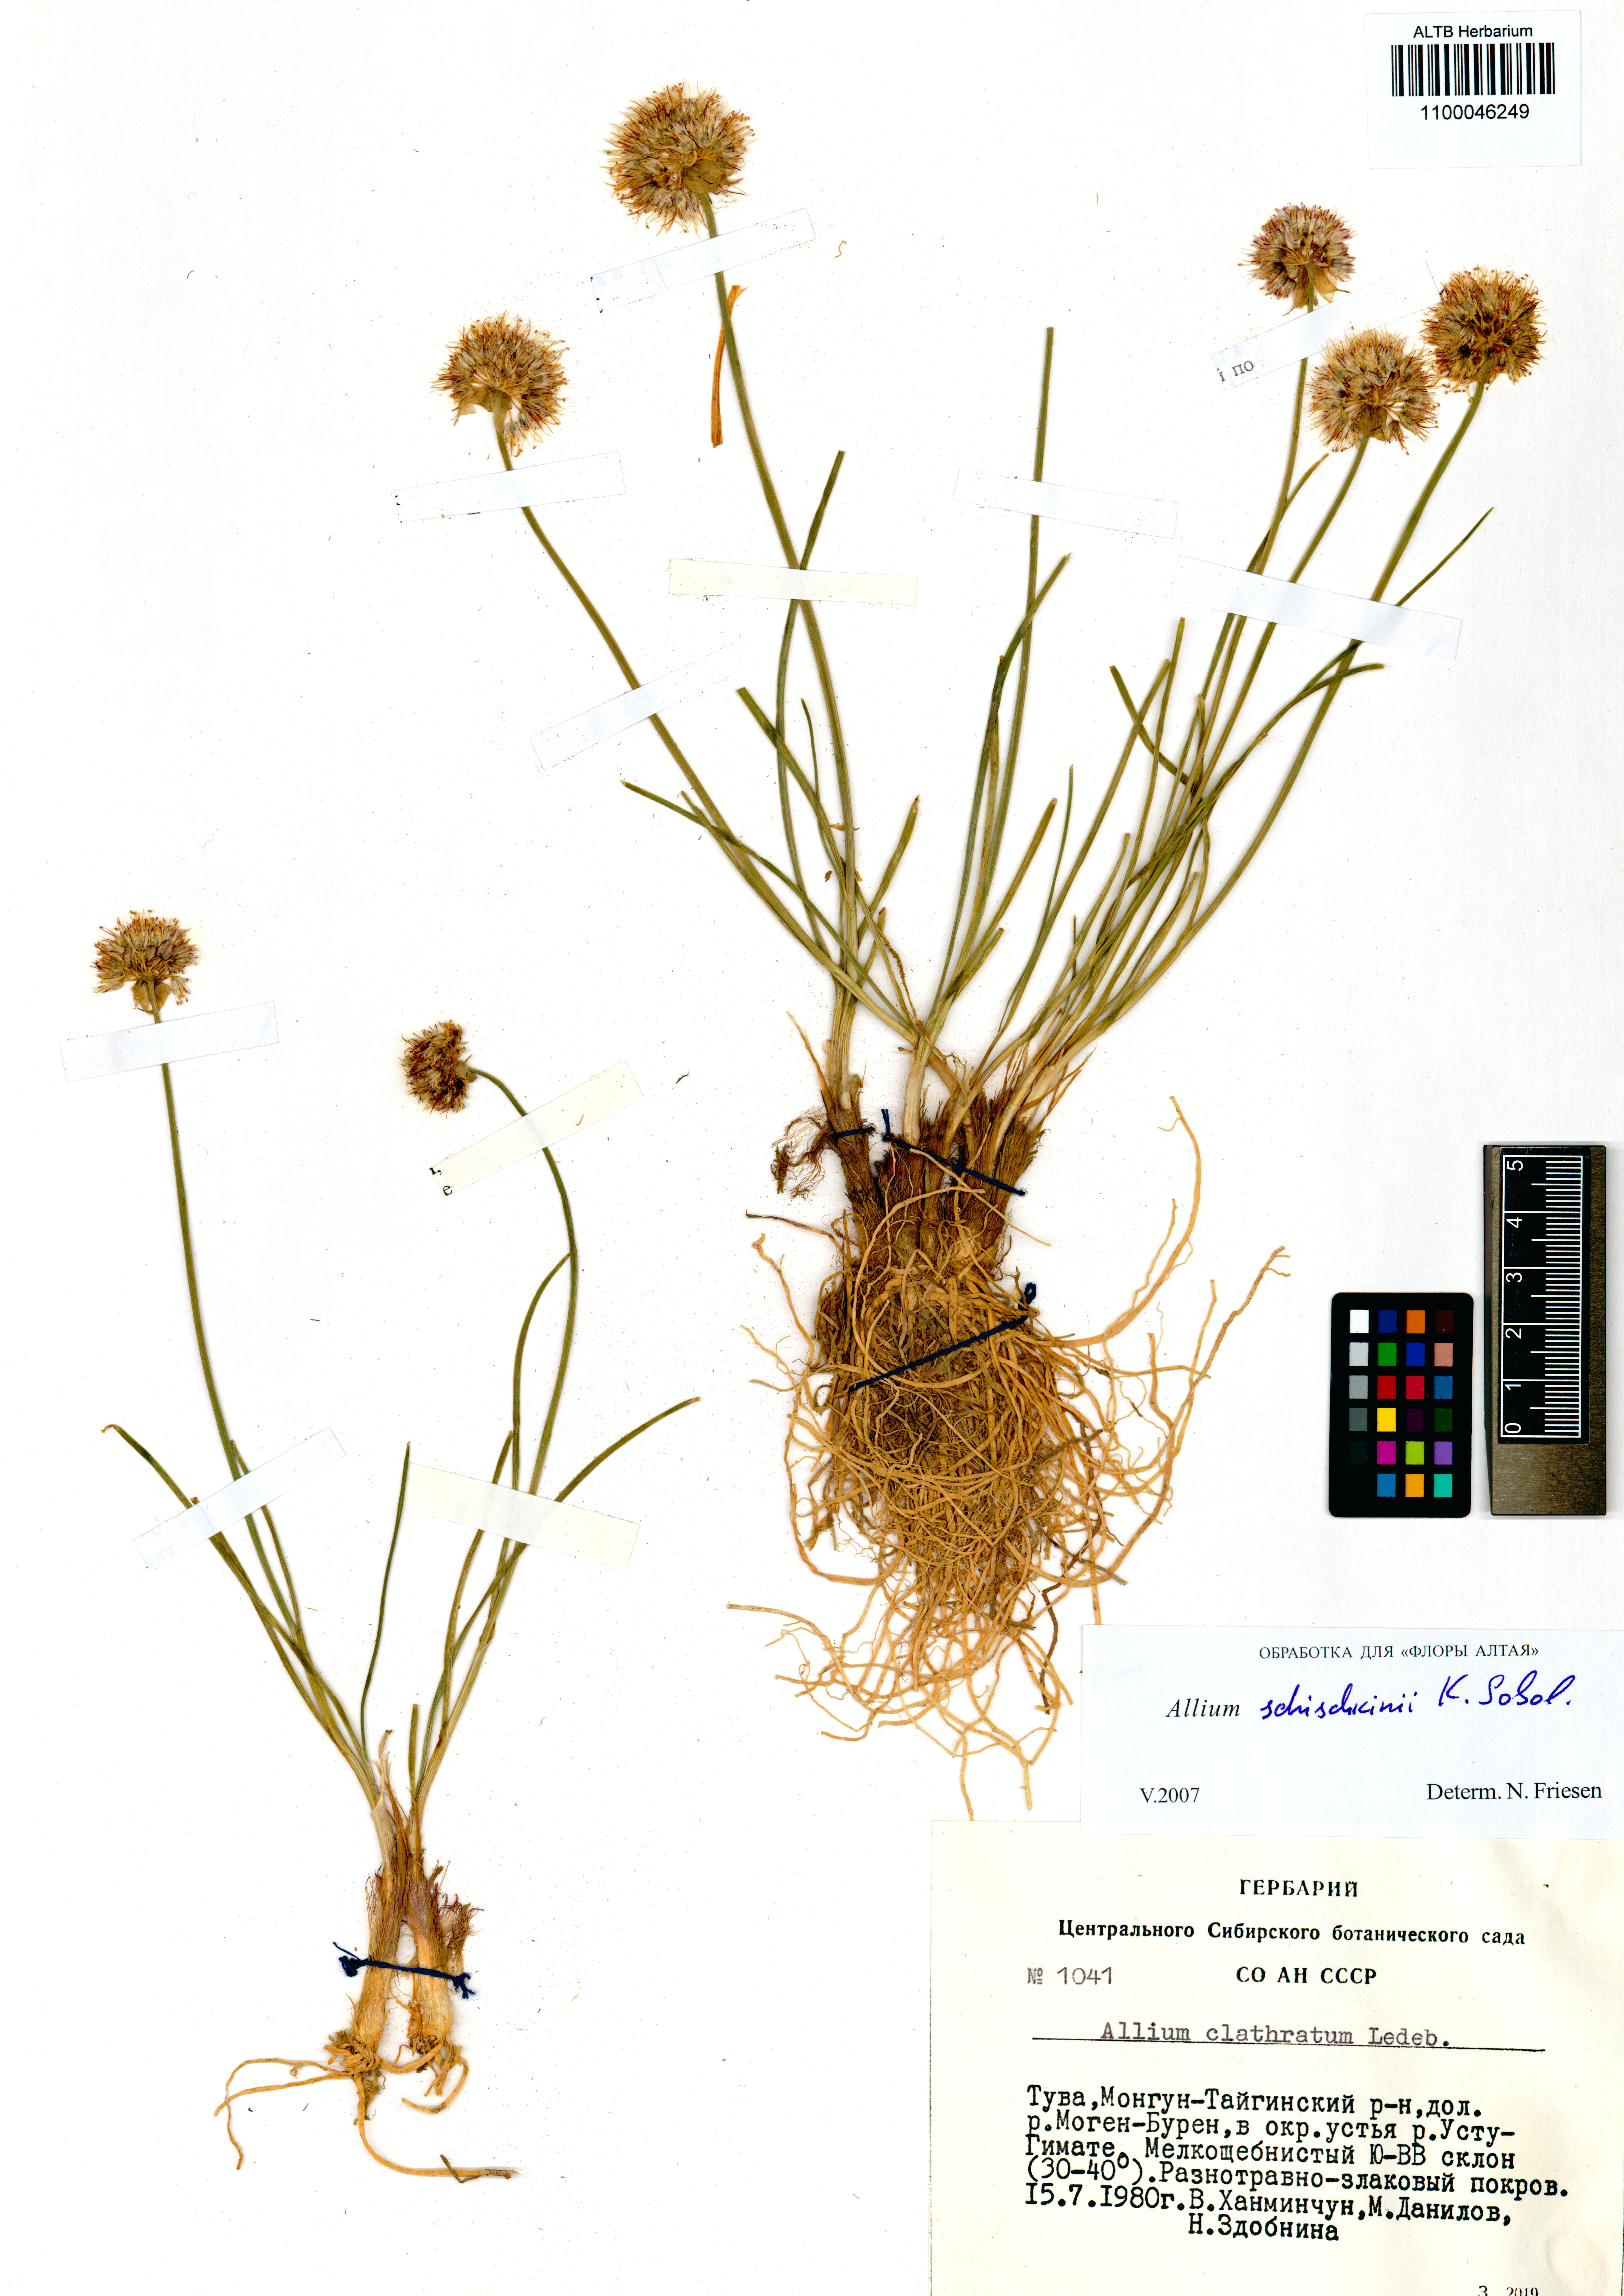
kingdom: Plantae
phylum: Tracheophyta
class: Liliopsida
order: Asparagales
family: Amaryllidaceae
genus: Allium
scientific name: Allium schischkinii
